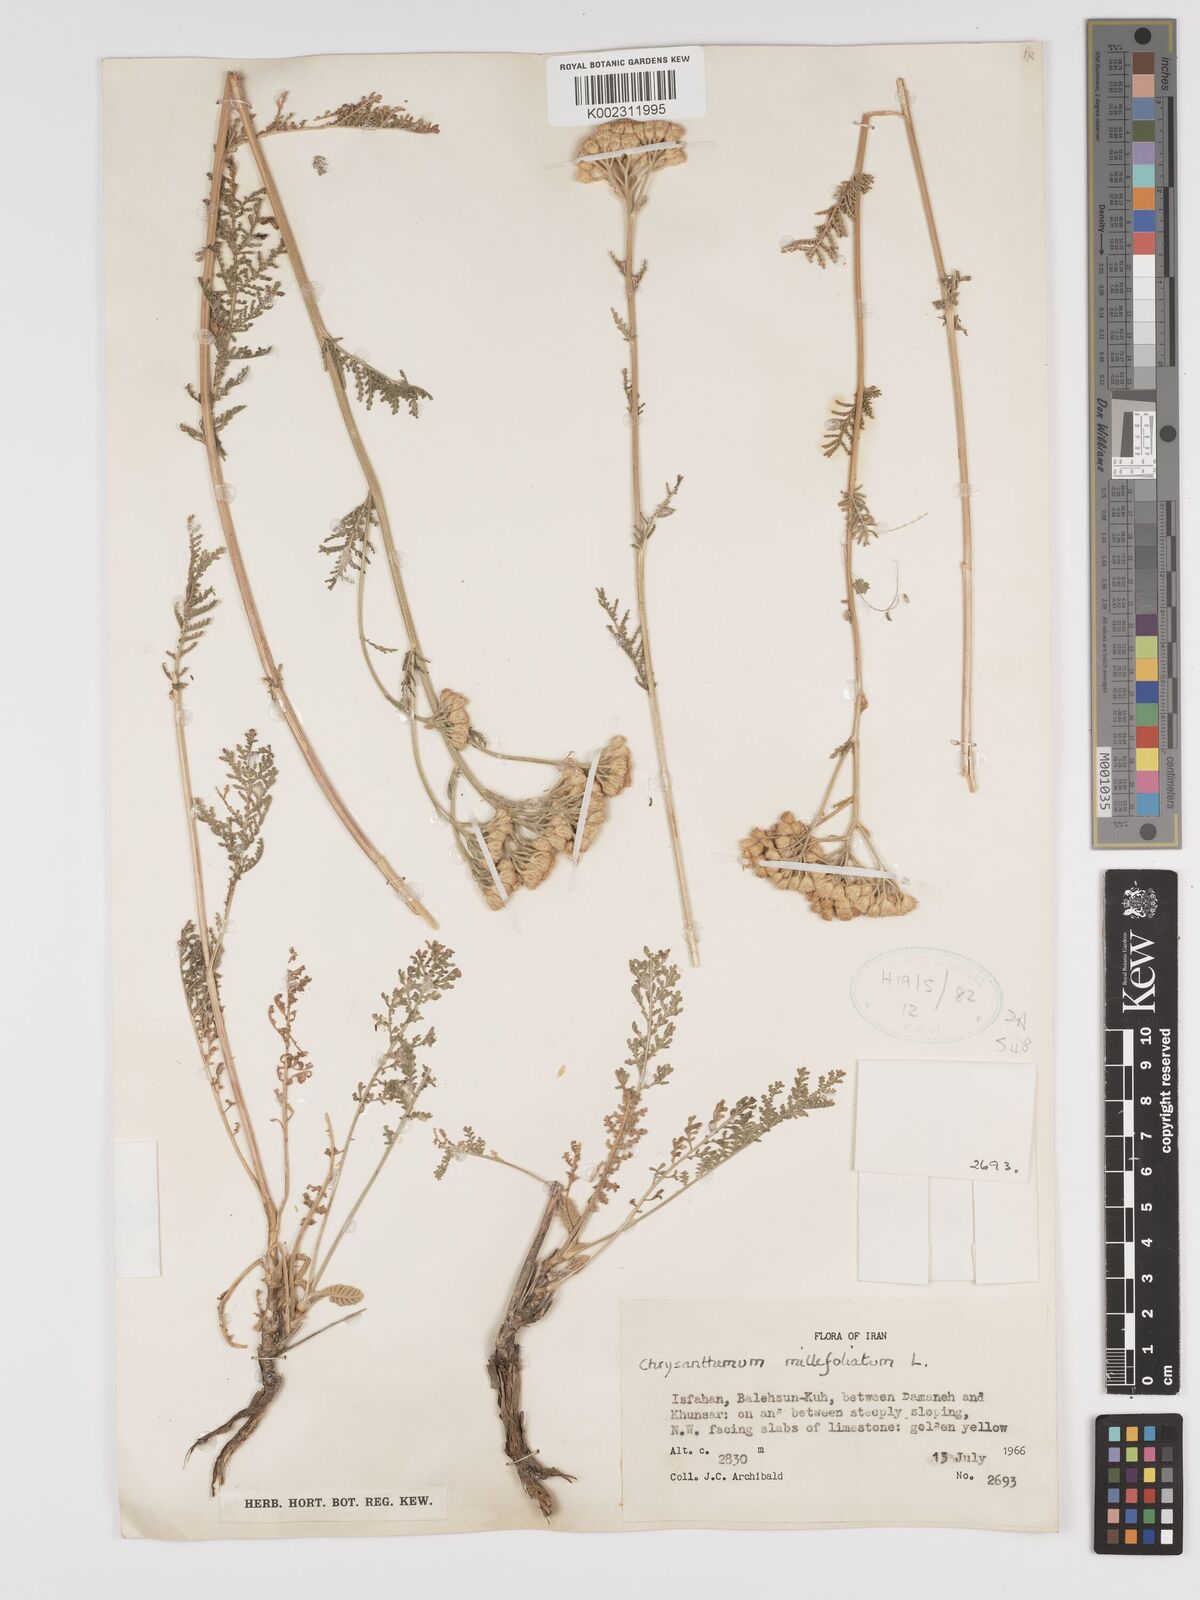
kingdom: Plantae
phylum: Tracheophyta
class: Magnoliopsida
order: Asterales
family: Asteraceae
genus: Tanacetum
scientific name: Tanacetum polycephalum
